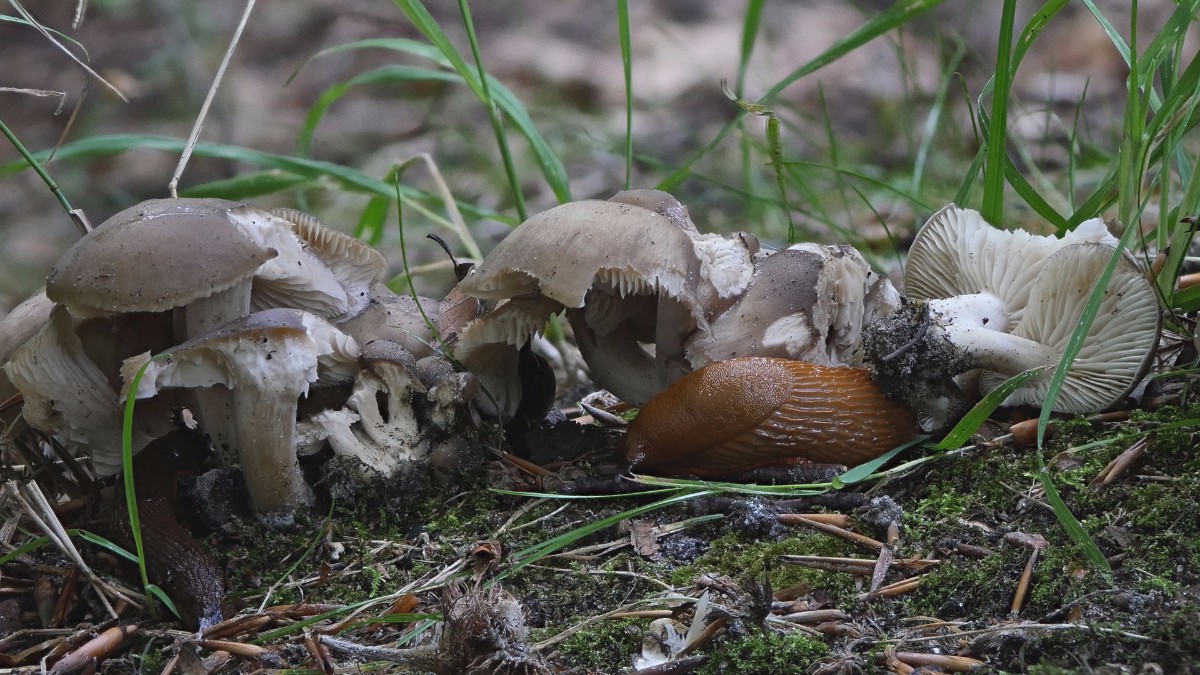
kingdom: Fungi
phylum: Basidiomycota
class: Agaricomycetes
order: Agaricales
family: Lyophyllaceae
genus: Lyophyllum
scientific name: Lyophyllum decastes
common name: Clustered domecap
